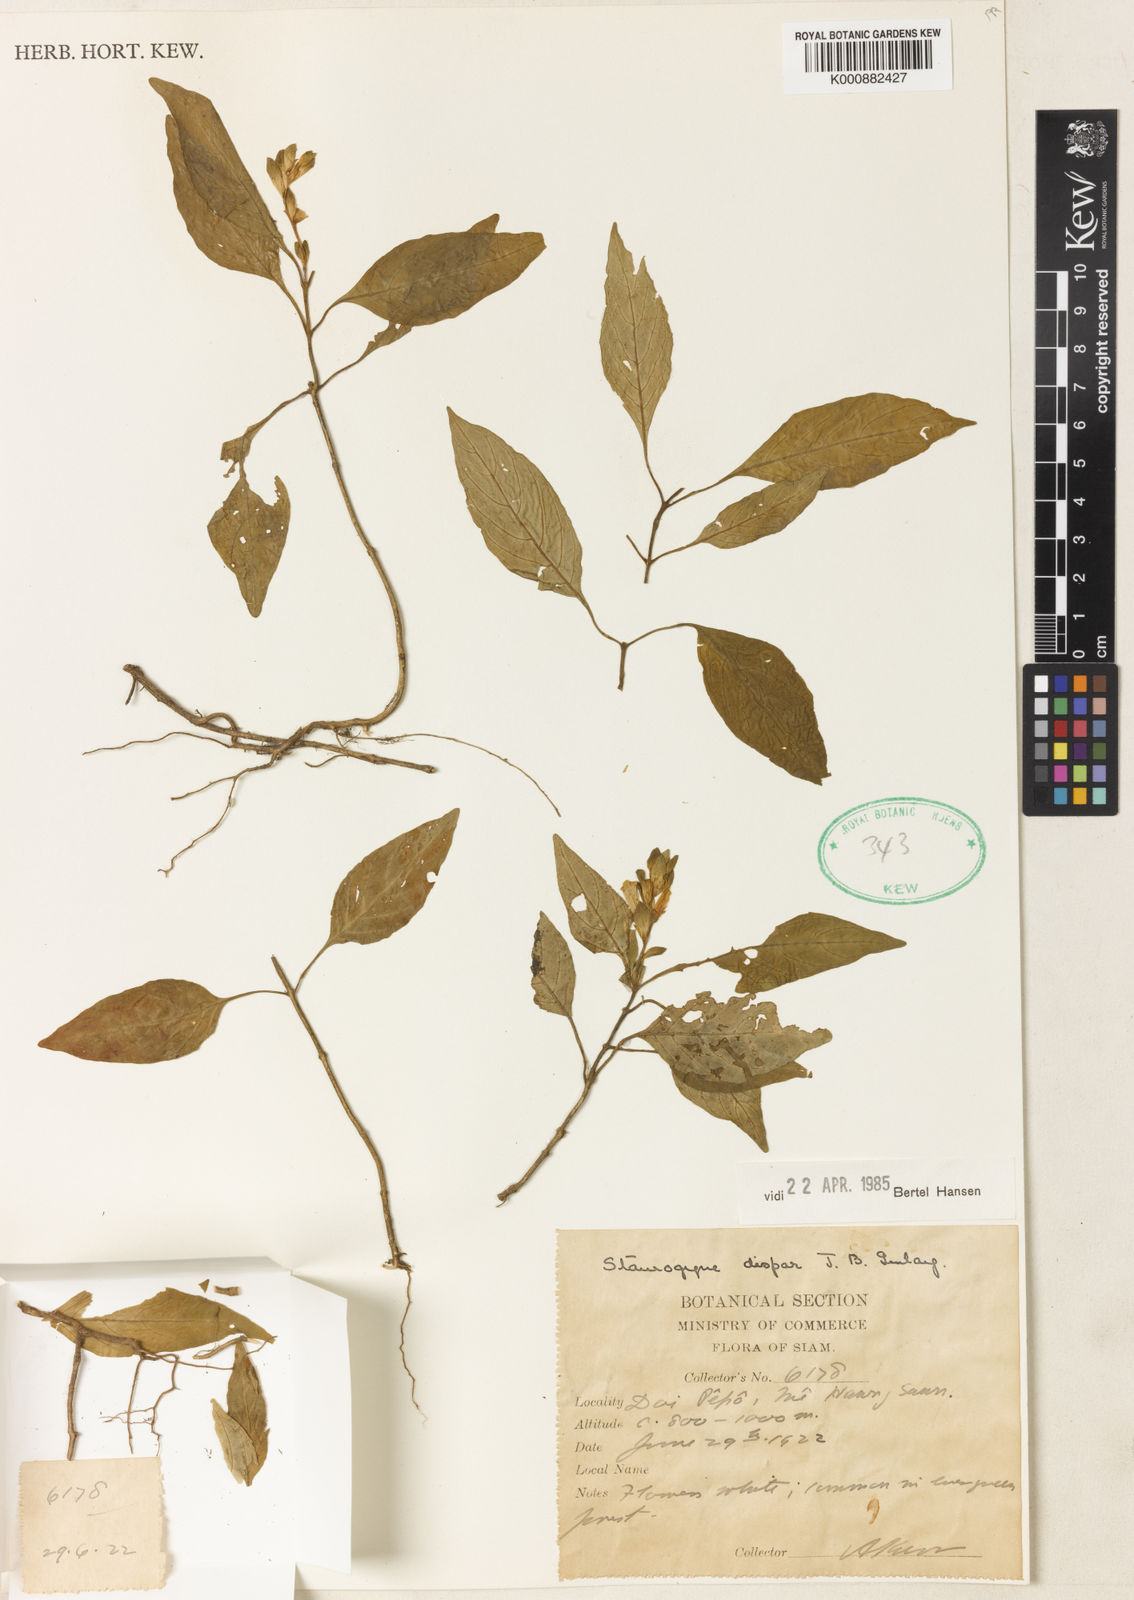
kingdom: Plantae
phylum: Tracheophyta
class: Magnoliopsida
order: Lamiales
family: Acanthaceae
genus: Staurogyne
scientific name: Staurogyne dispar
